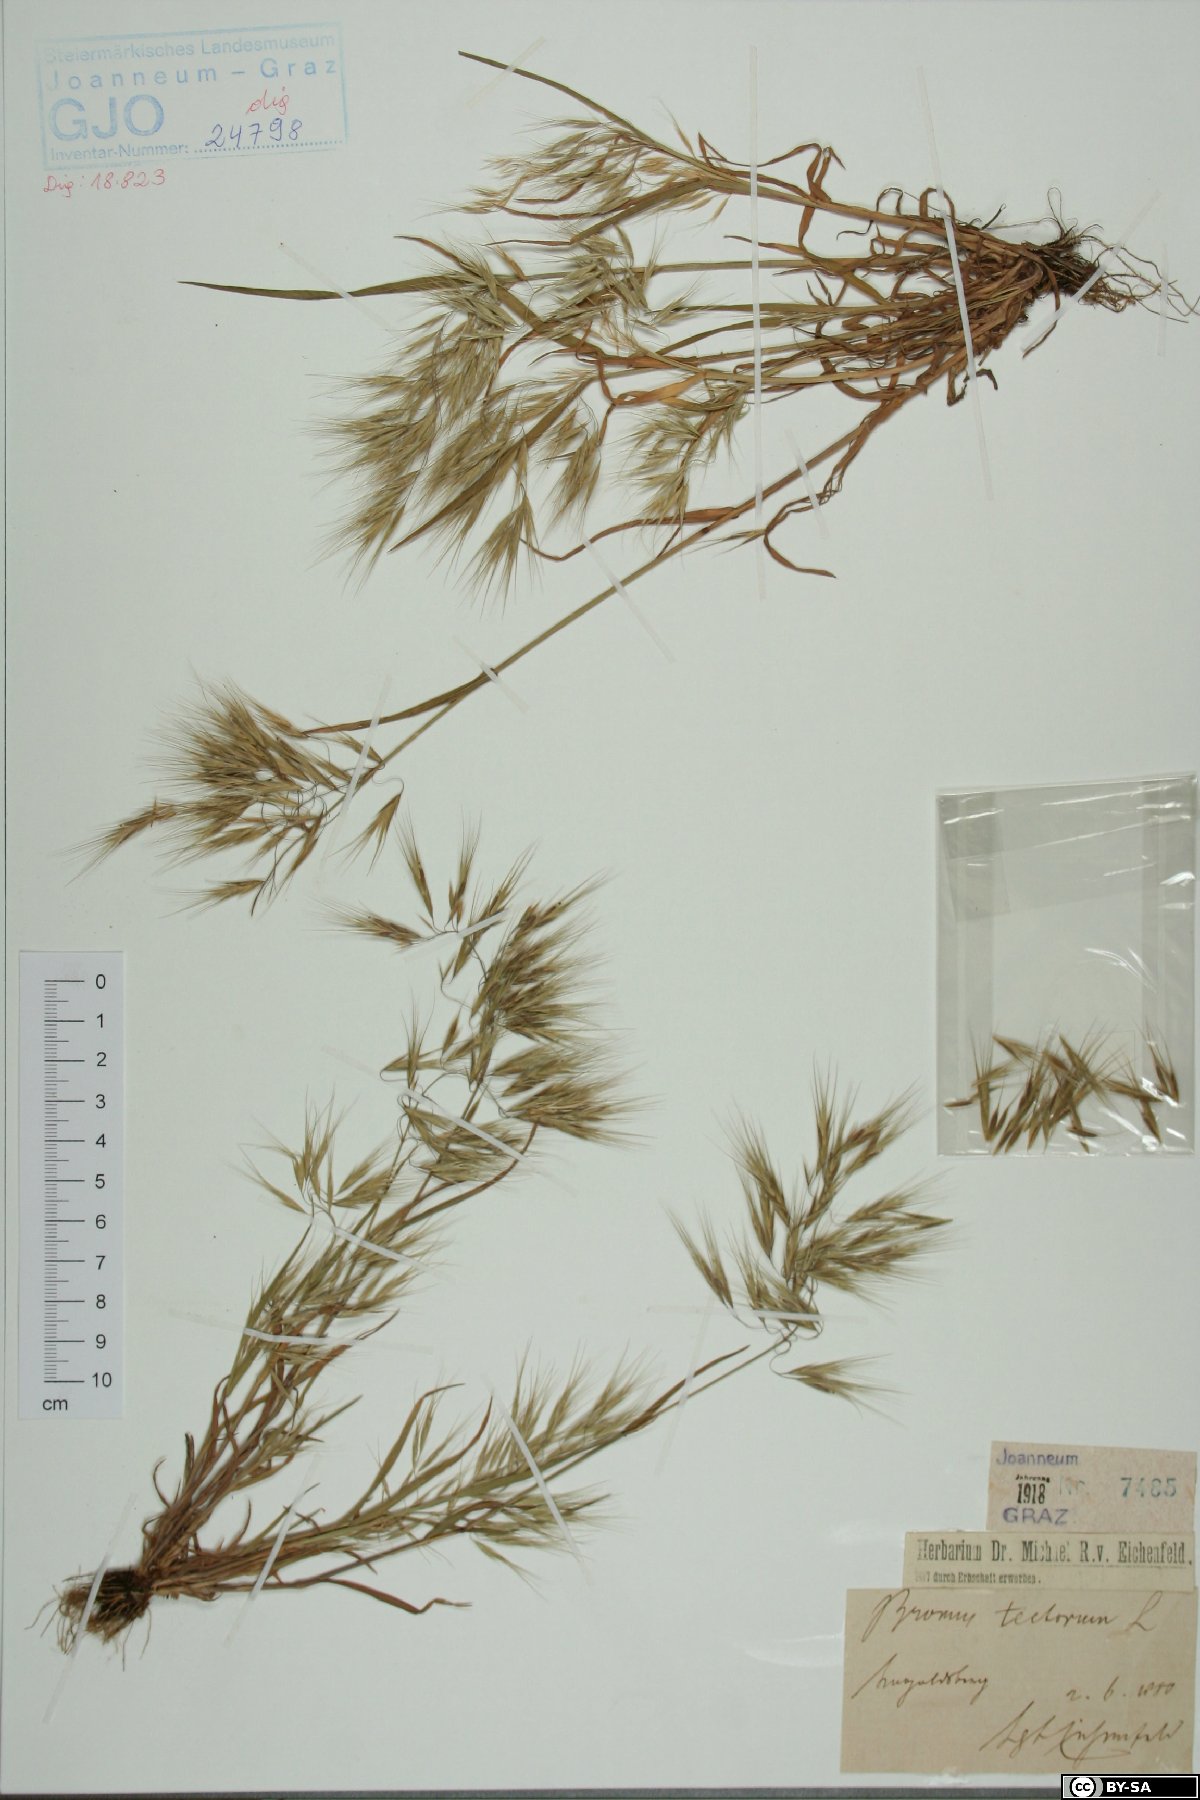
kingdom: Plantae
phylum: Tracheophyta
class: Liliopsida
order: Poales
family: Poaceae
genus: Bromus
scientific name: Bromus tectorum
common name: Cheatgrass
